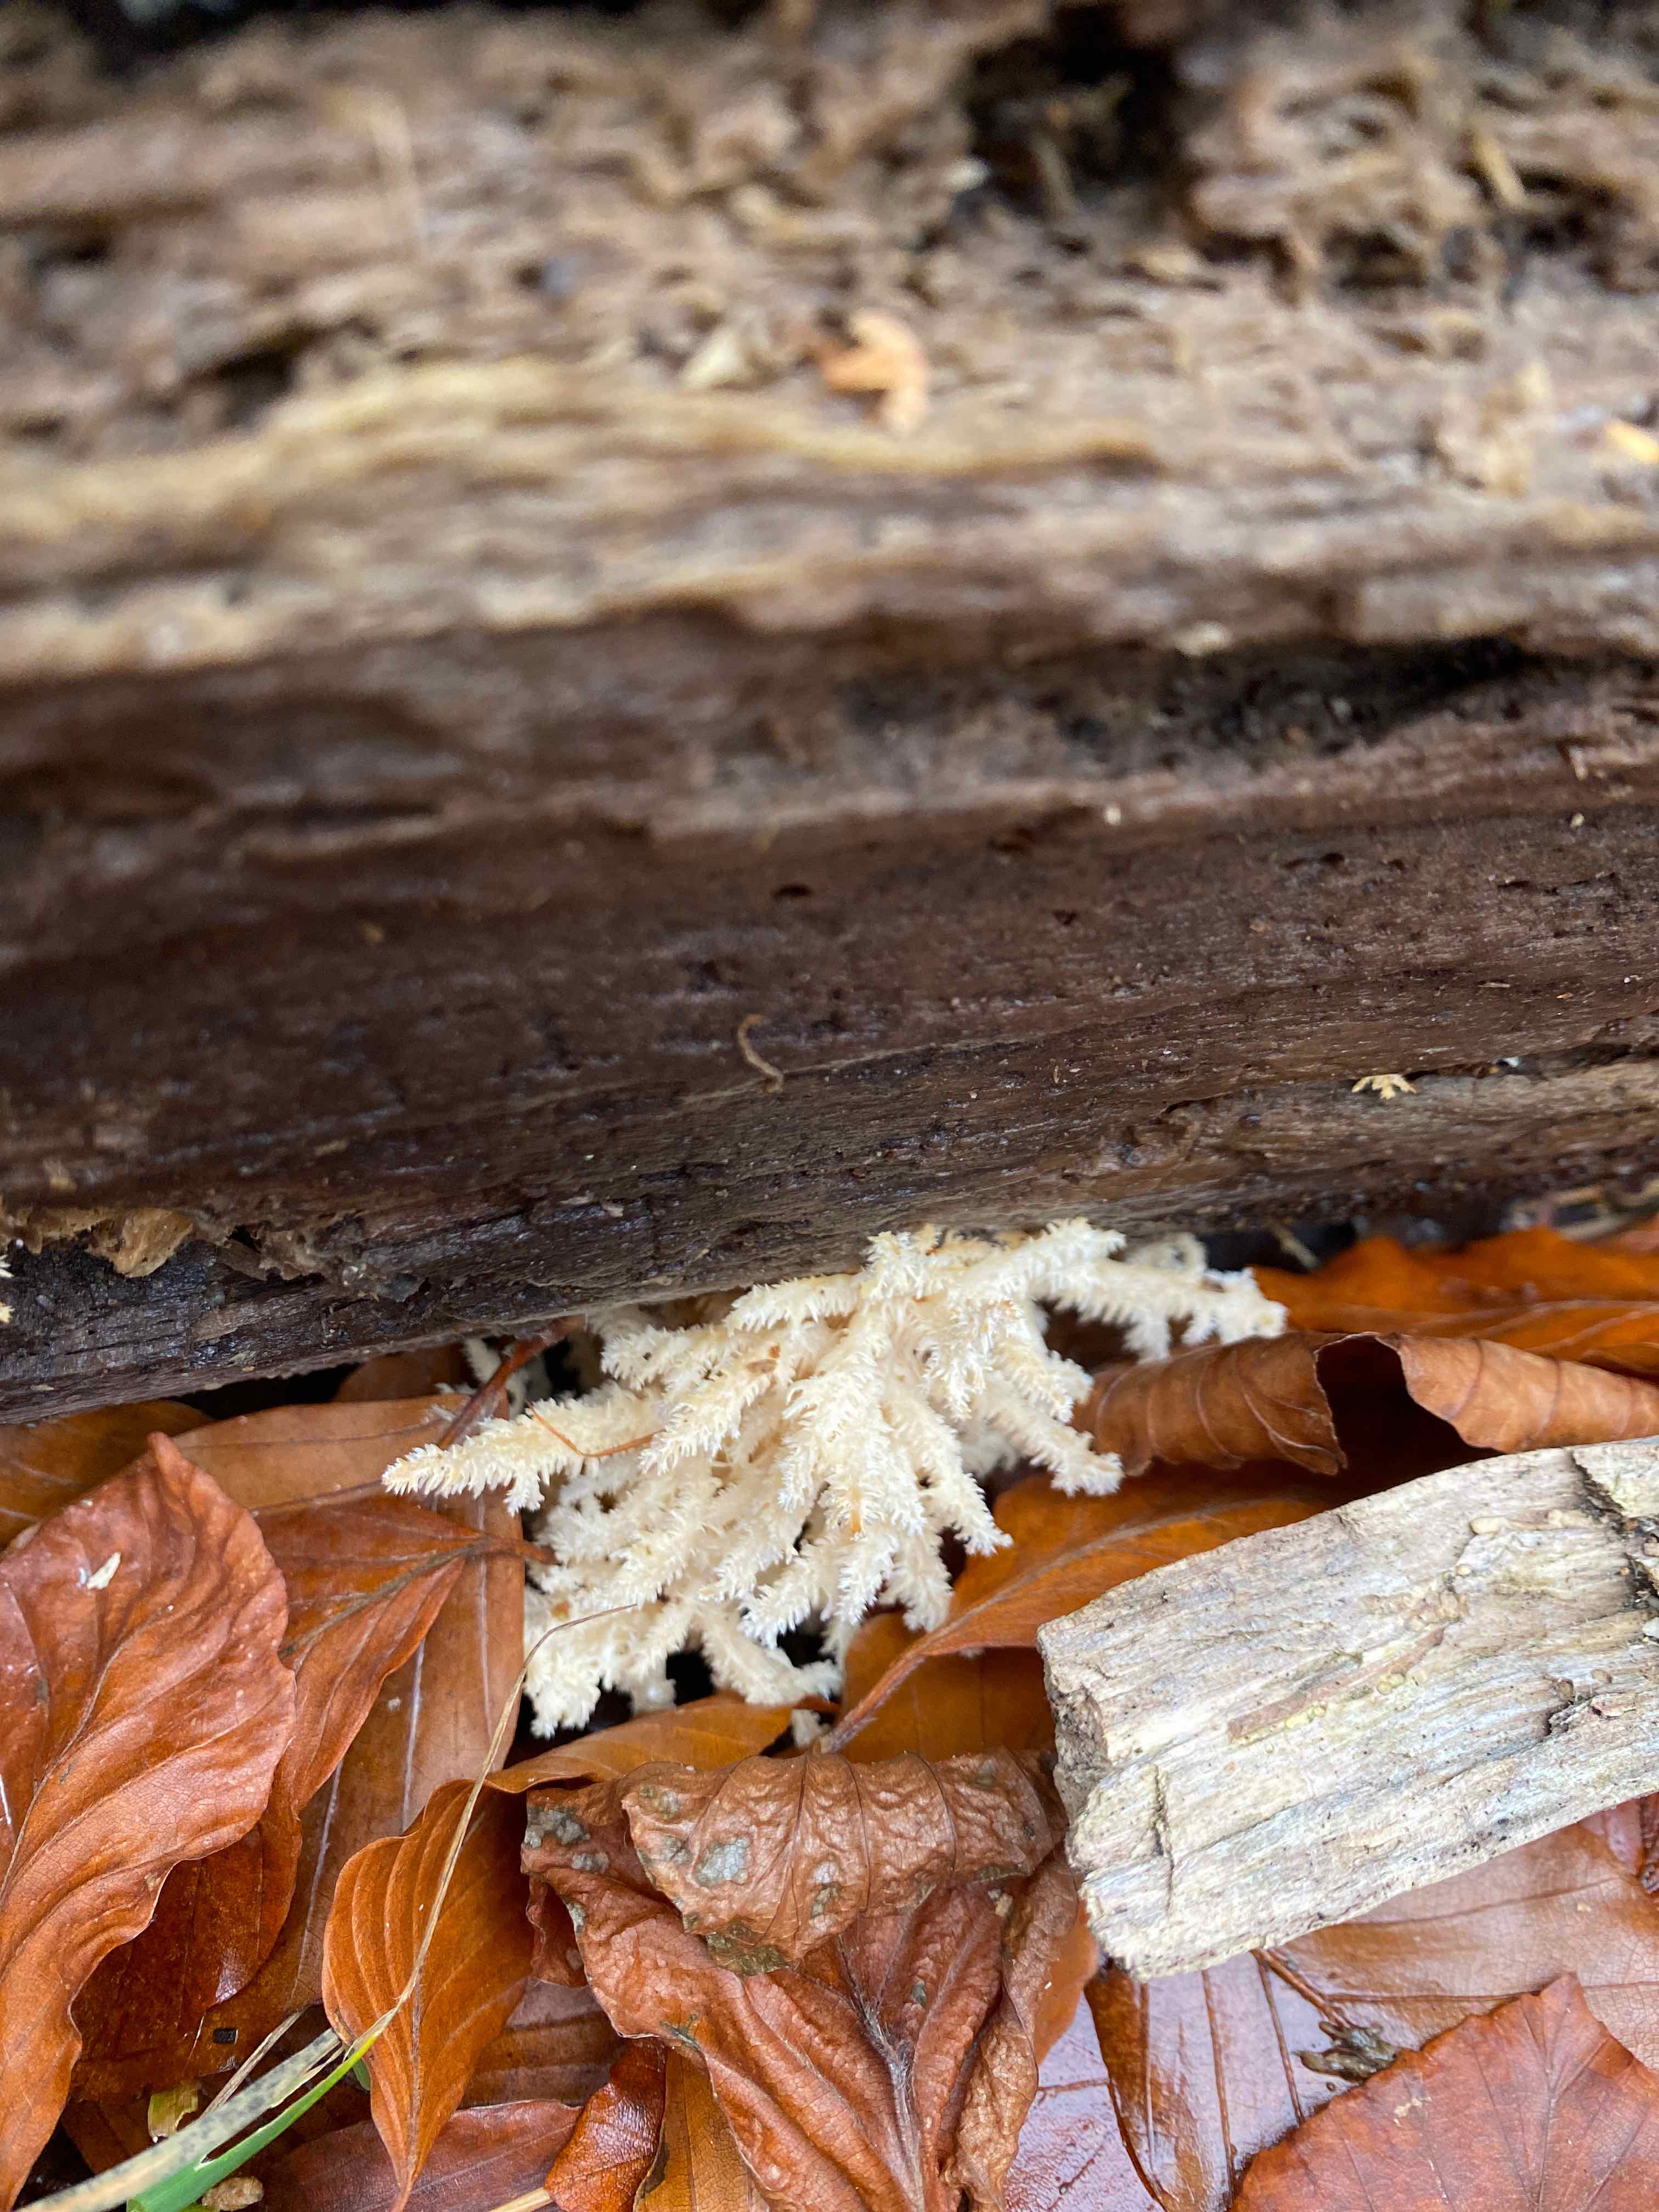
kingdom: Fungi
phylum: Basidiomycota
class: Agaricomycetes
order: Russulales
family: Hericiaceae
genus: Hericium
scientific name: Hericium coralloides
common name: koralpigsvamp
